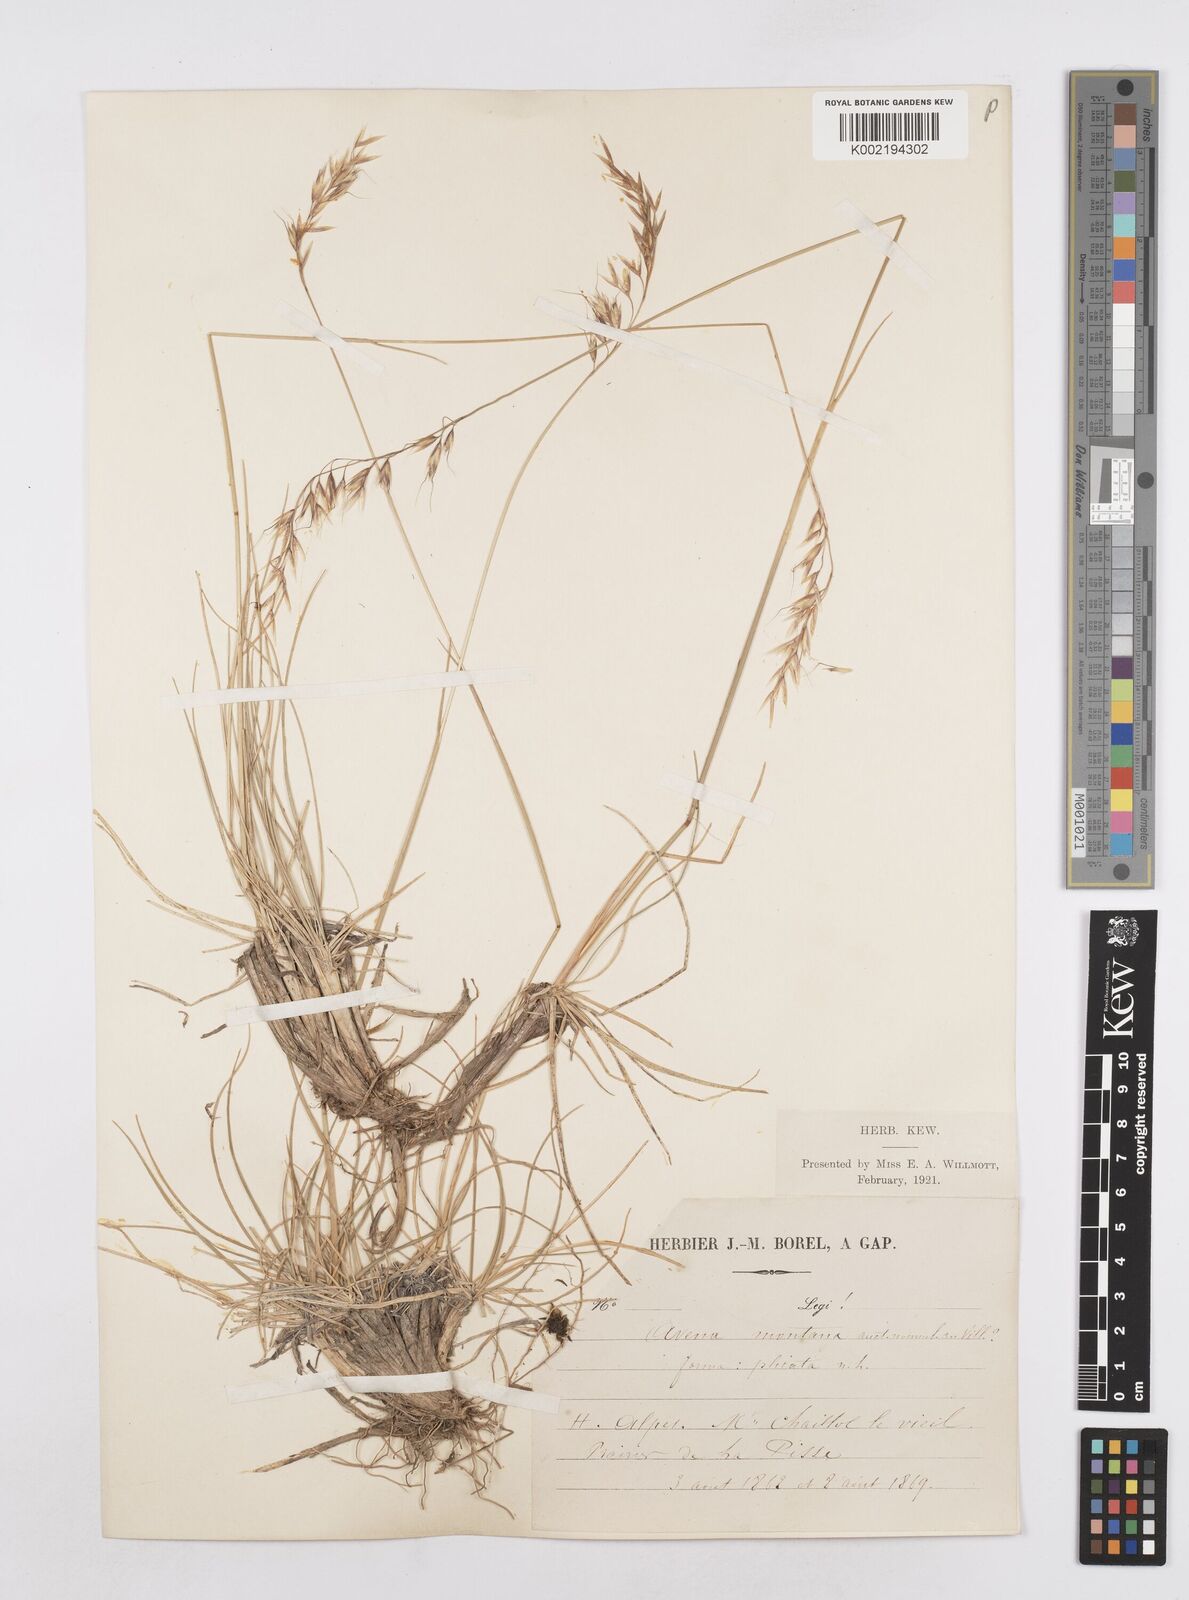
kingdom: Plantae
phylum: Tracheophyta
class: Liliopsida
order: Poales
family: Poaceae
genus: Helictotrichon
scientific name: Helictotrichon sedenense
